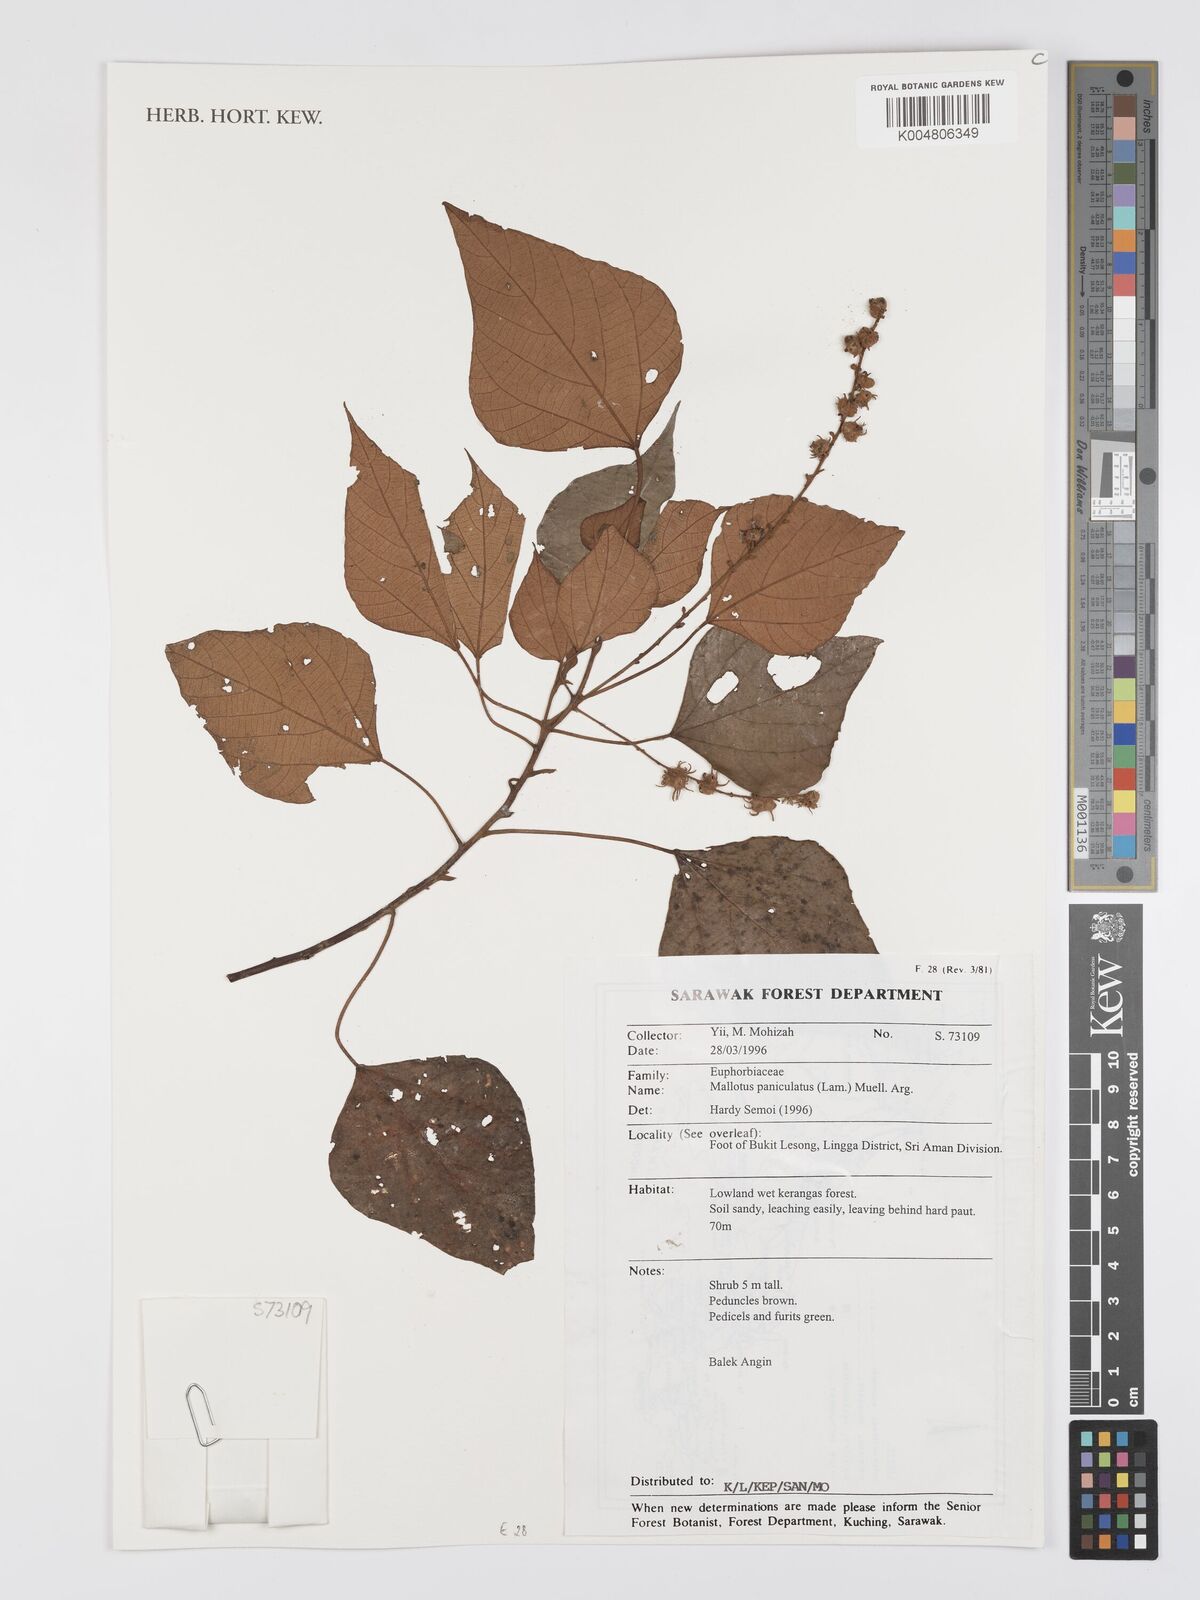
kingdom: Plantae
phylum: Tracheophyta
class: Magnoliopsida
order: Malpighiales
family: Euphorbiaceae
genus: Mallotus
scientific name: Mallotus paniculatus
